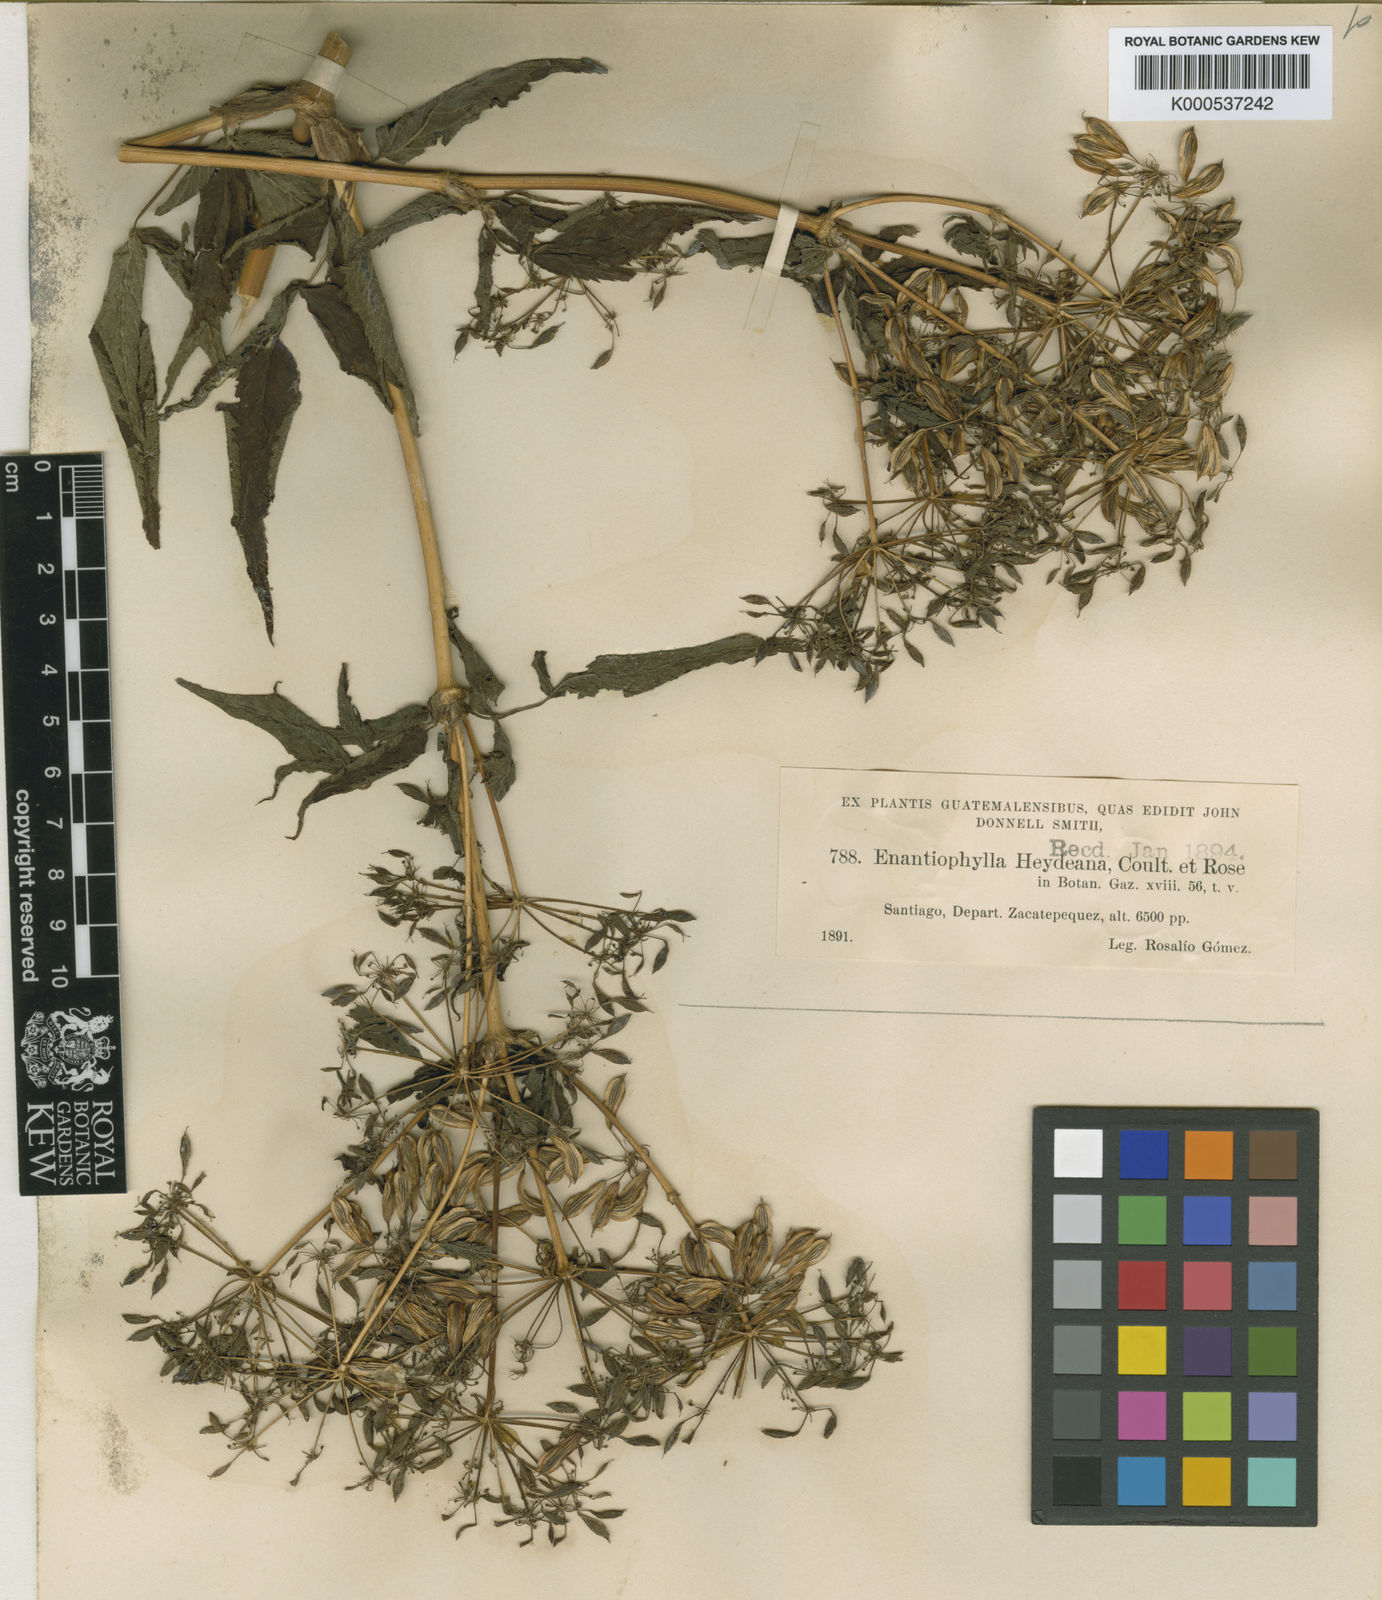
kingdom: Plantae
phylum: Tracheophyta
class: Magnoliopsida
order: Apiales
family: Apiaceae
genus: Enantiophylla
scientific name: Enantiophylla heydeana
